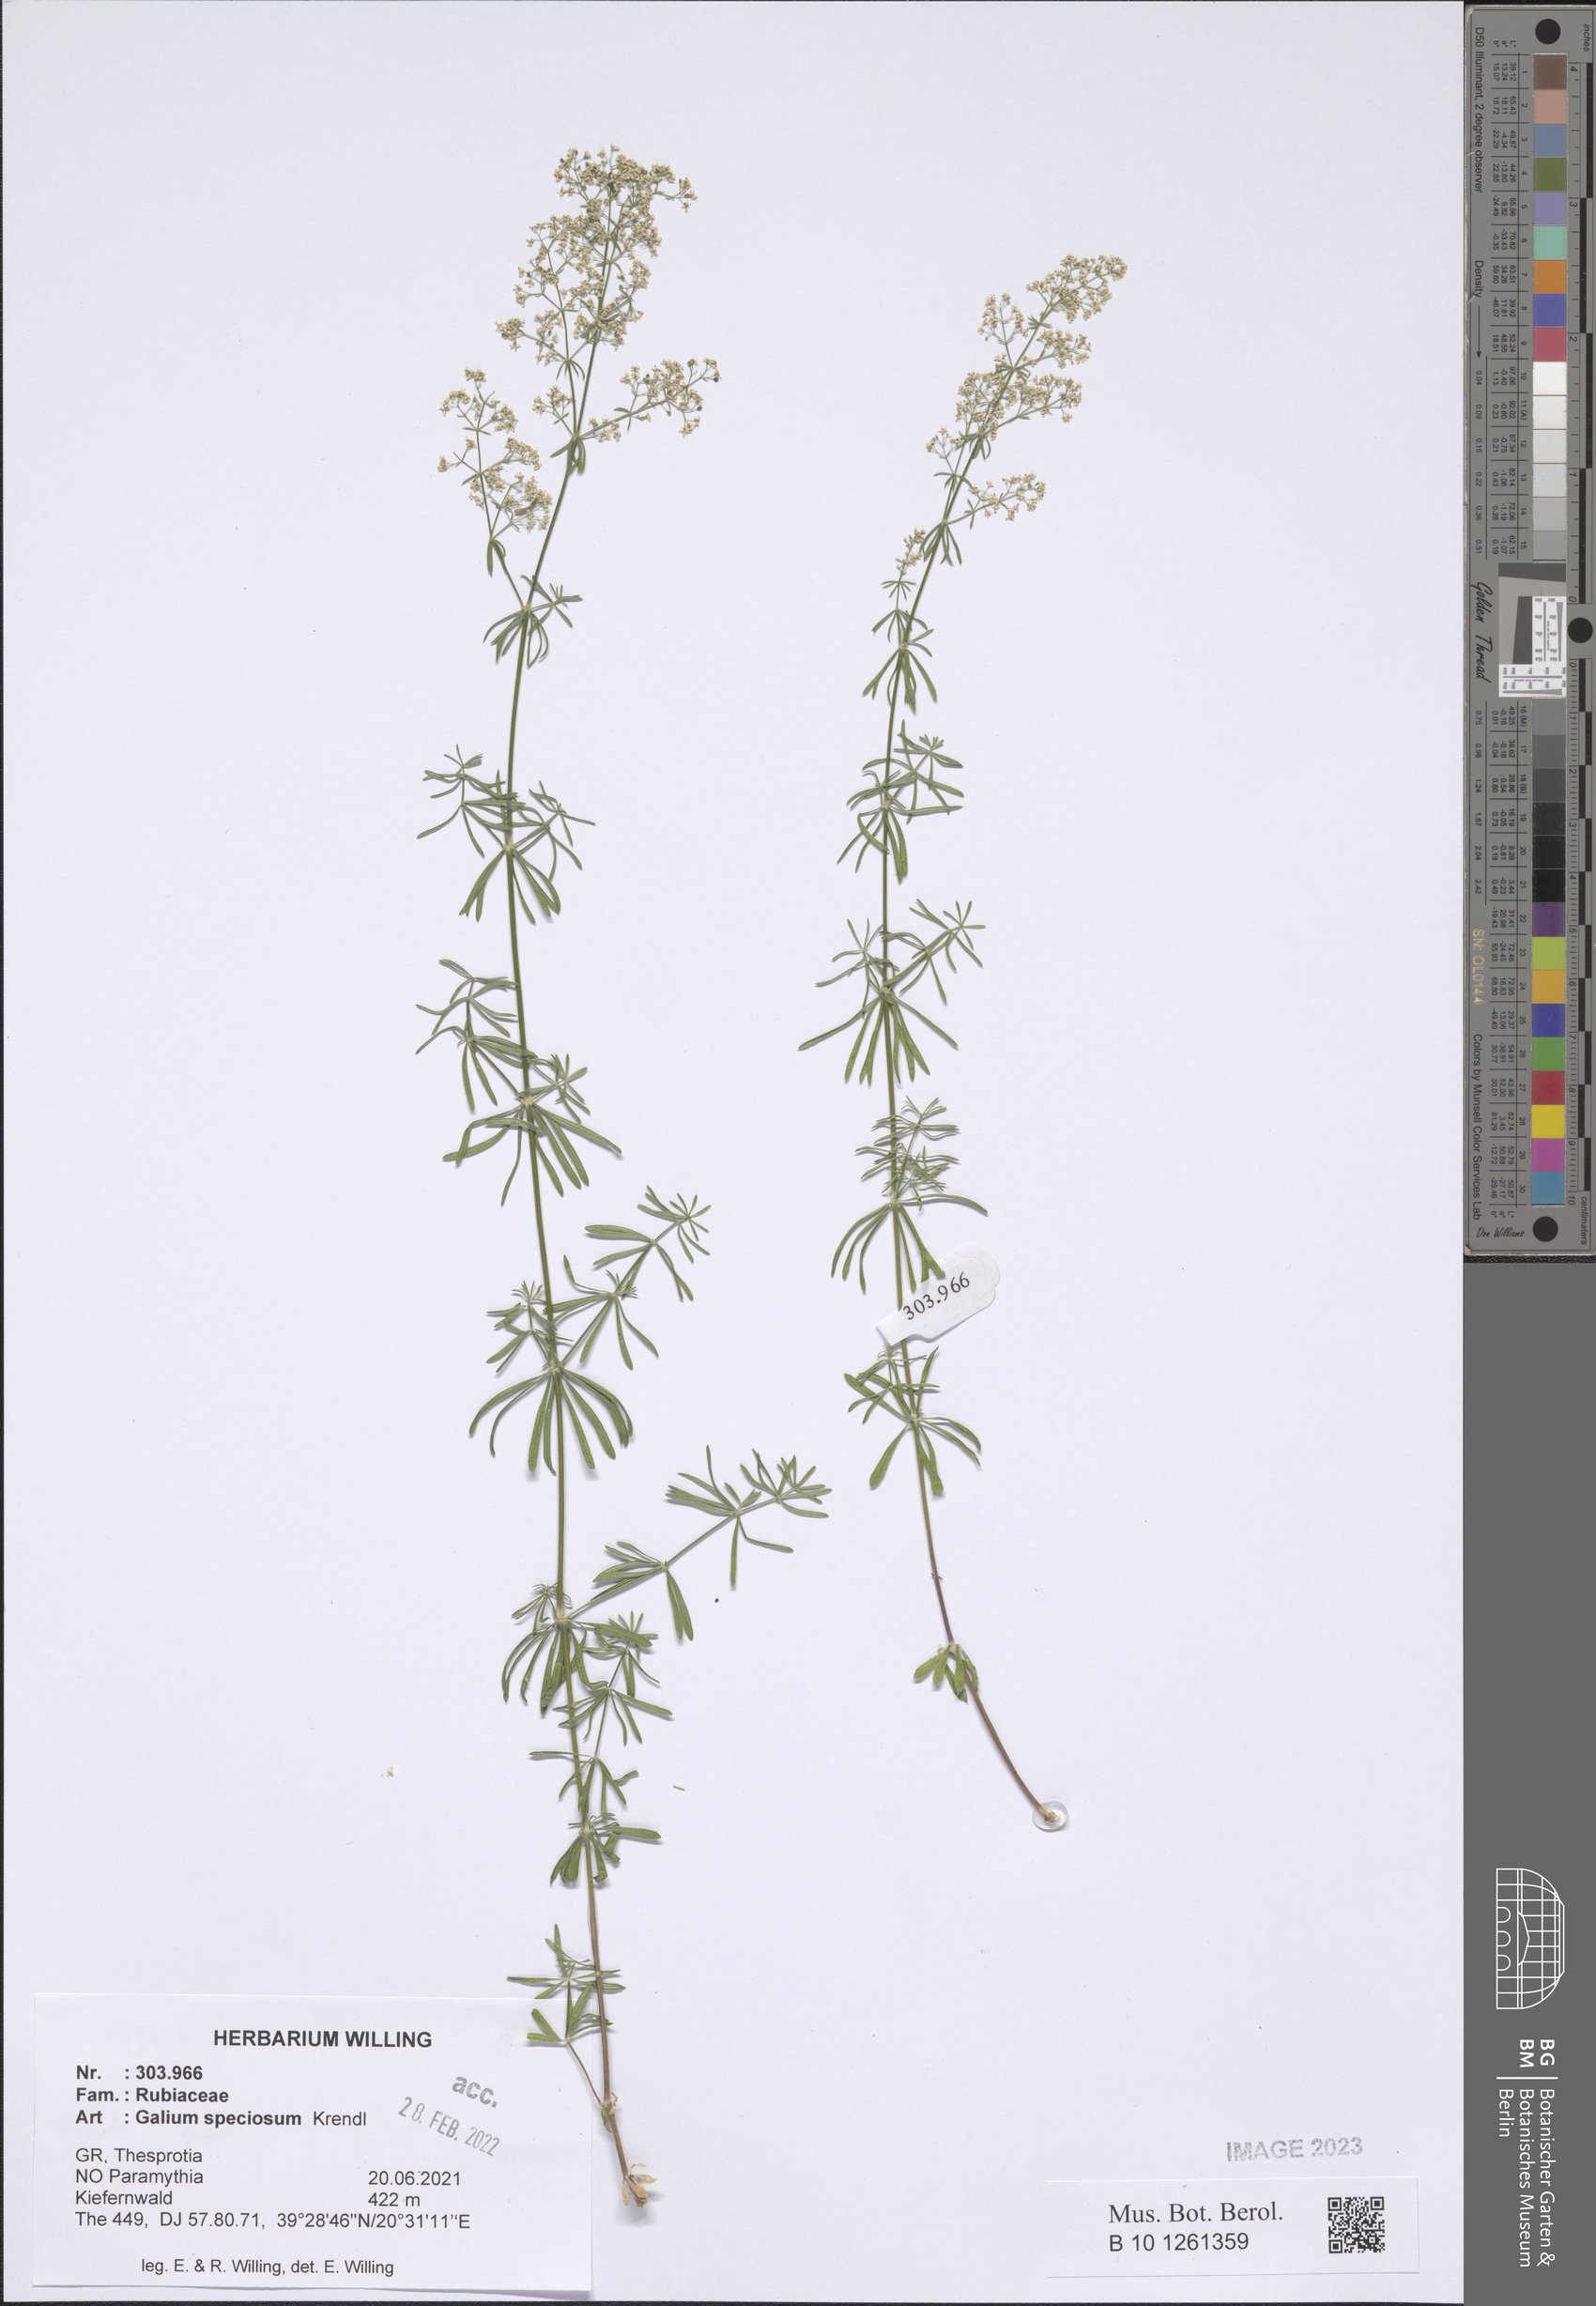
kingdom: Plantae
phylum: Tracheophyta
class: Magnoliopsida
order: Gentianales
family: Rubiaceae
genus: Galium
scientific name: Galium speciosum
